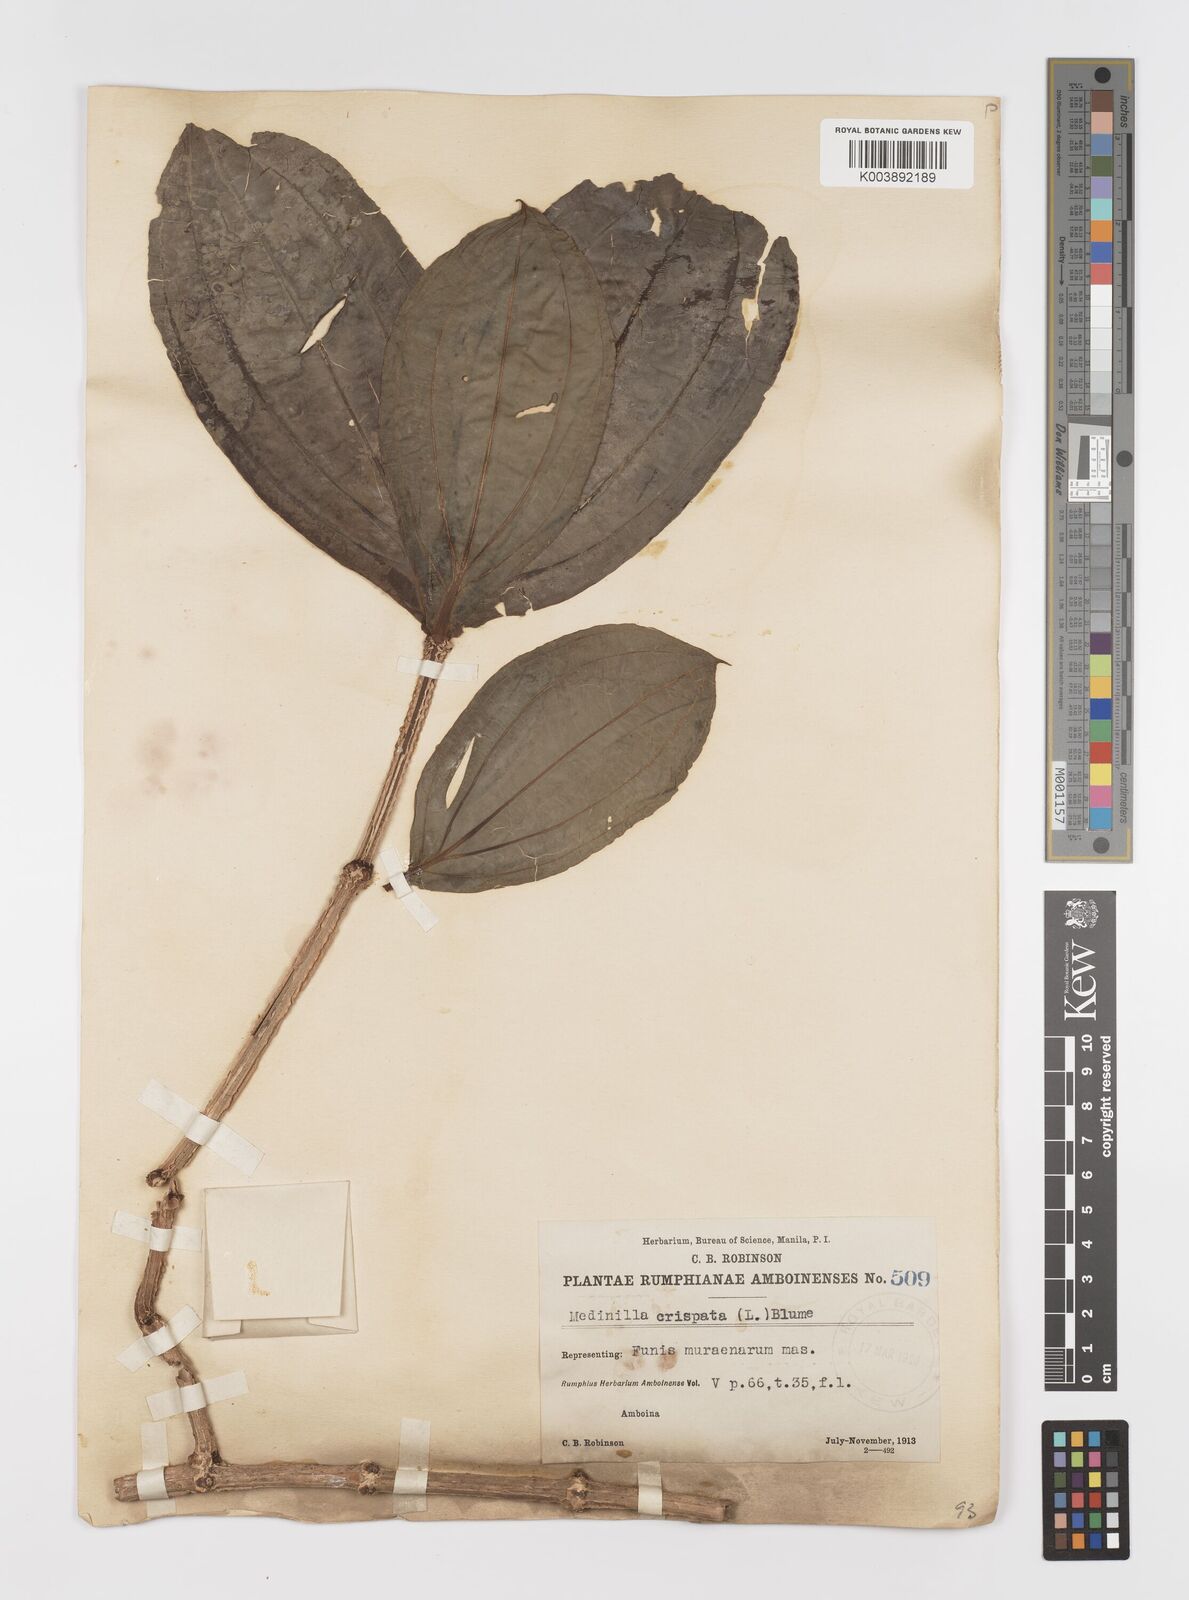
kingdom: Plantae
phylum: Tracheophyta
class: Magnoliopsida
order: Myrtales
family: Melastomataceae
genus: Medinilla
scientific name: Medinilla crispata
